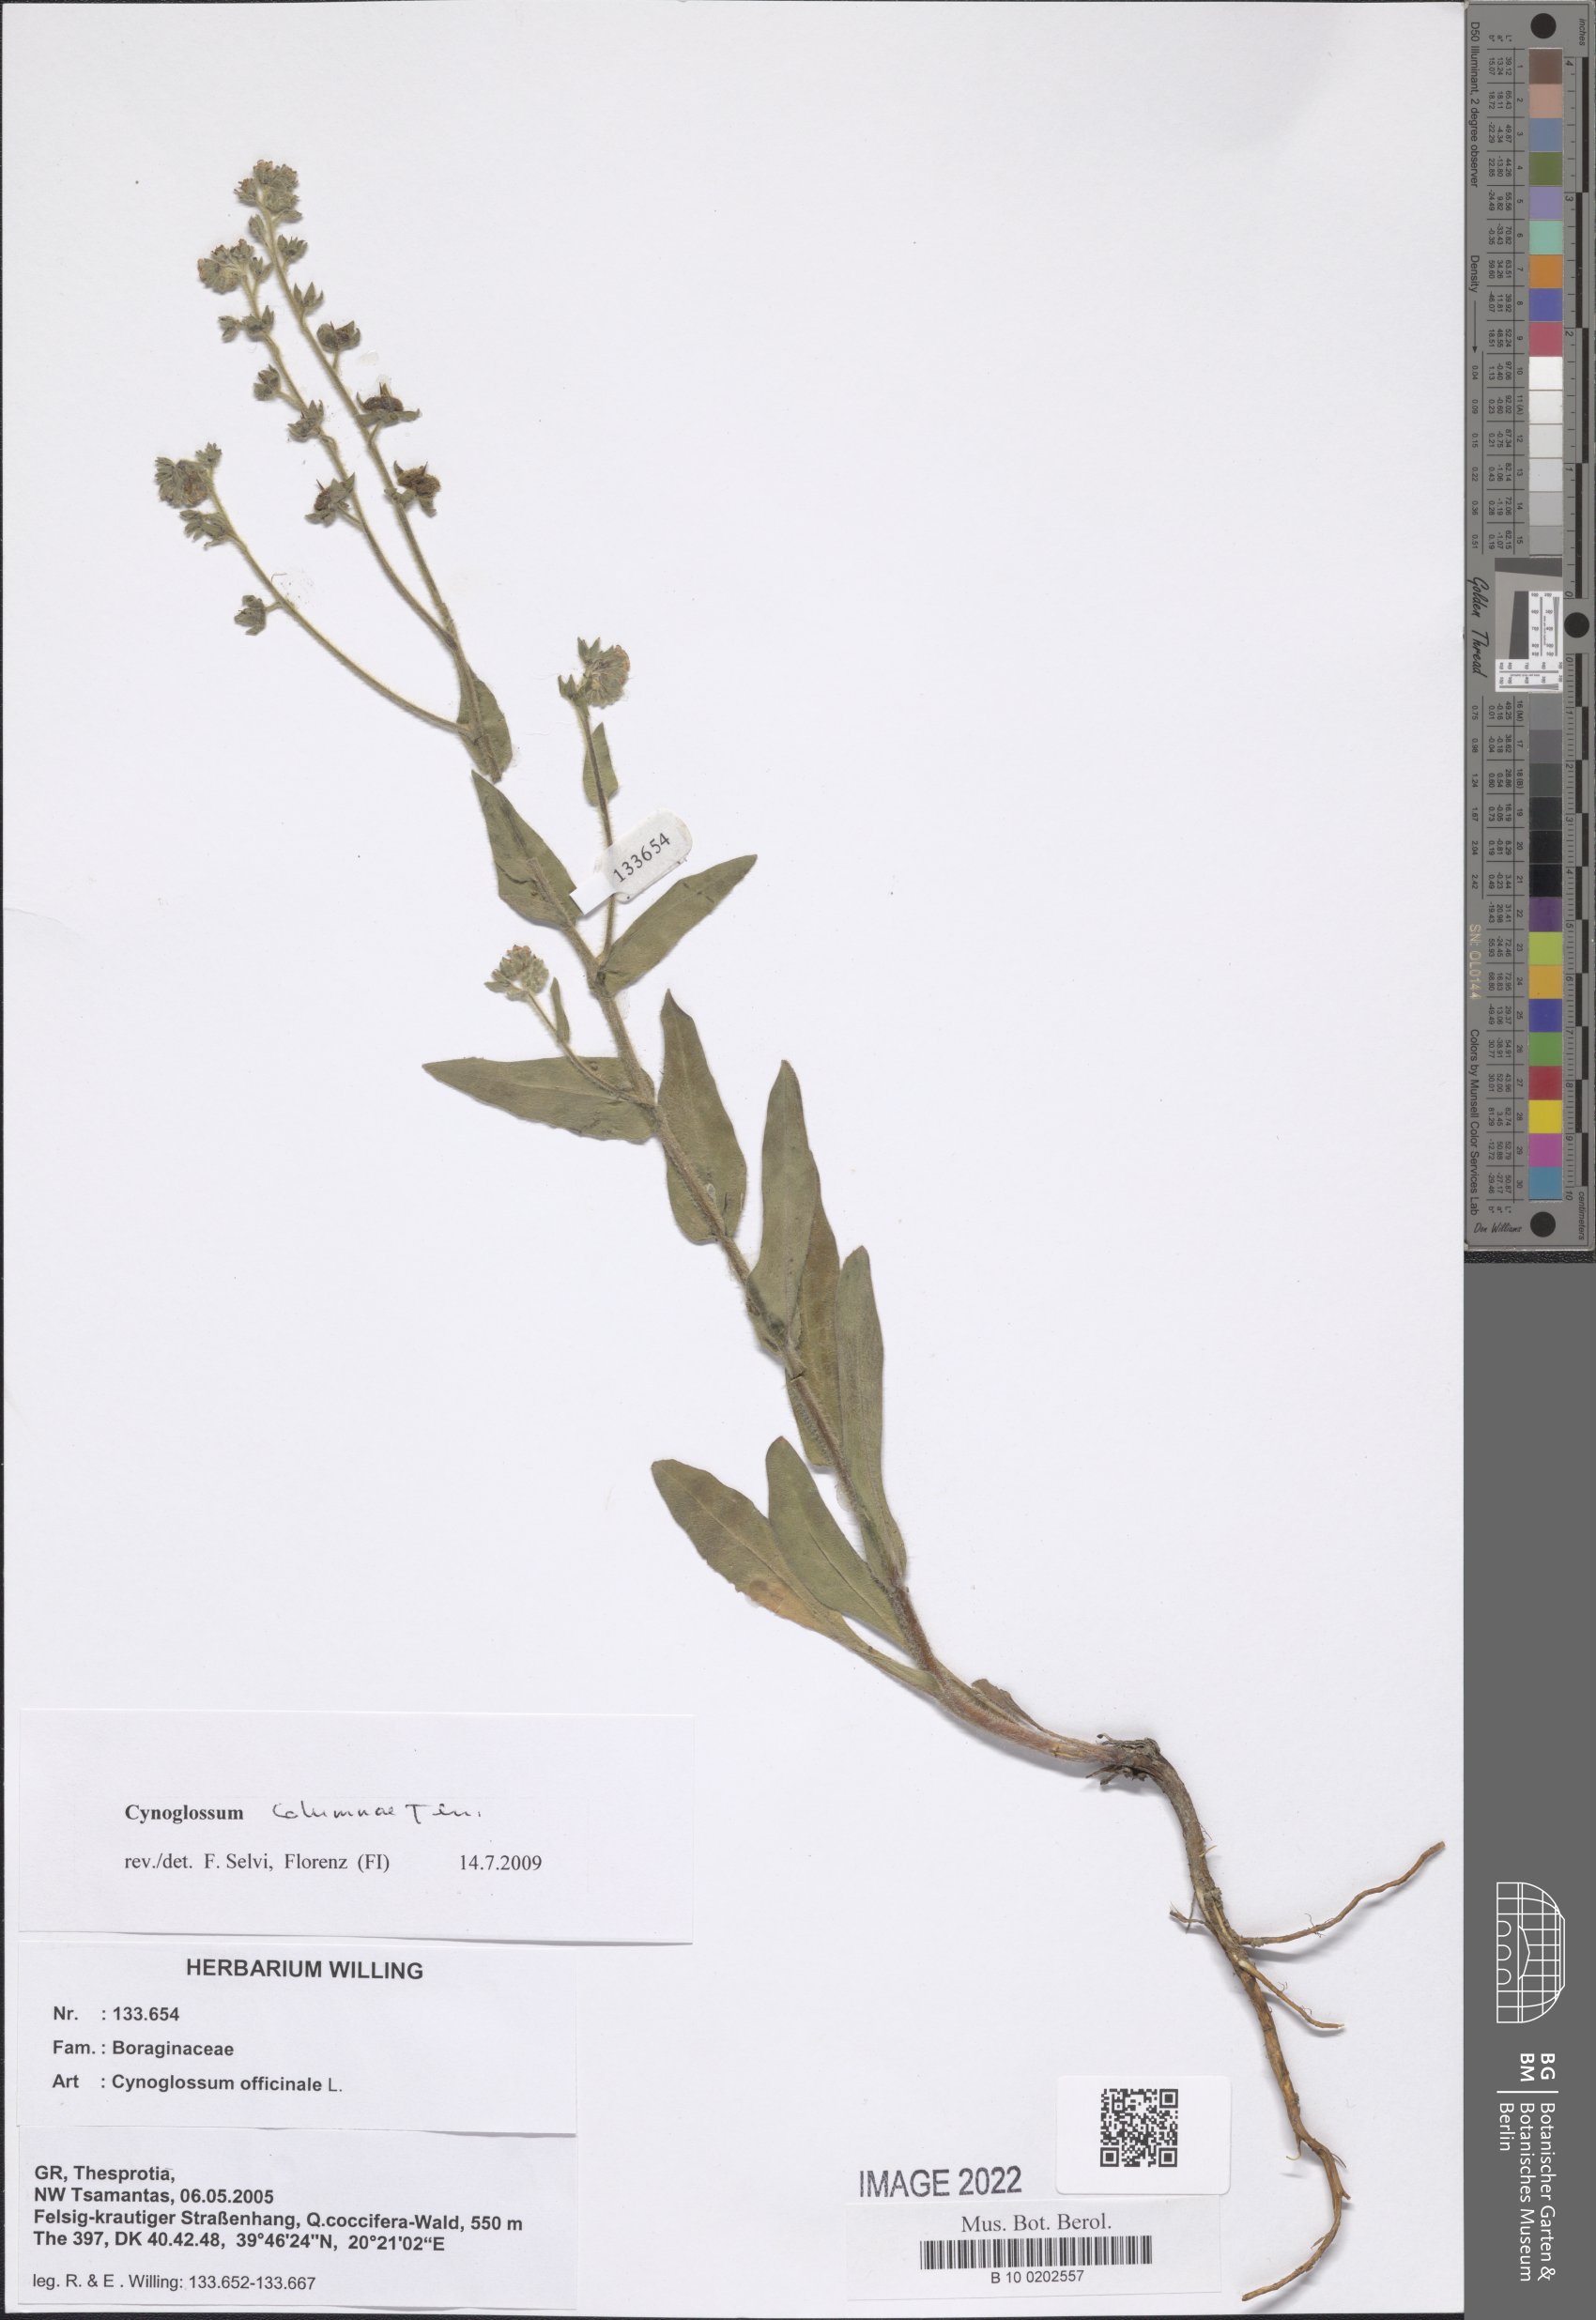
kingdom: Plantae
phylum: Tracheophyta
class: Magnoliopsida
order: Boraginales
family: Boraginaceae
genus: Rindera
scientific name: Rindera columnae
